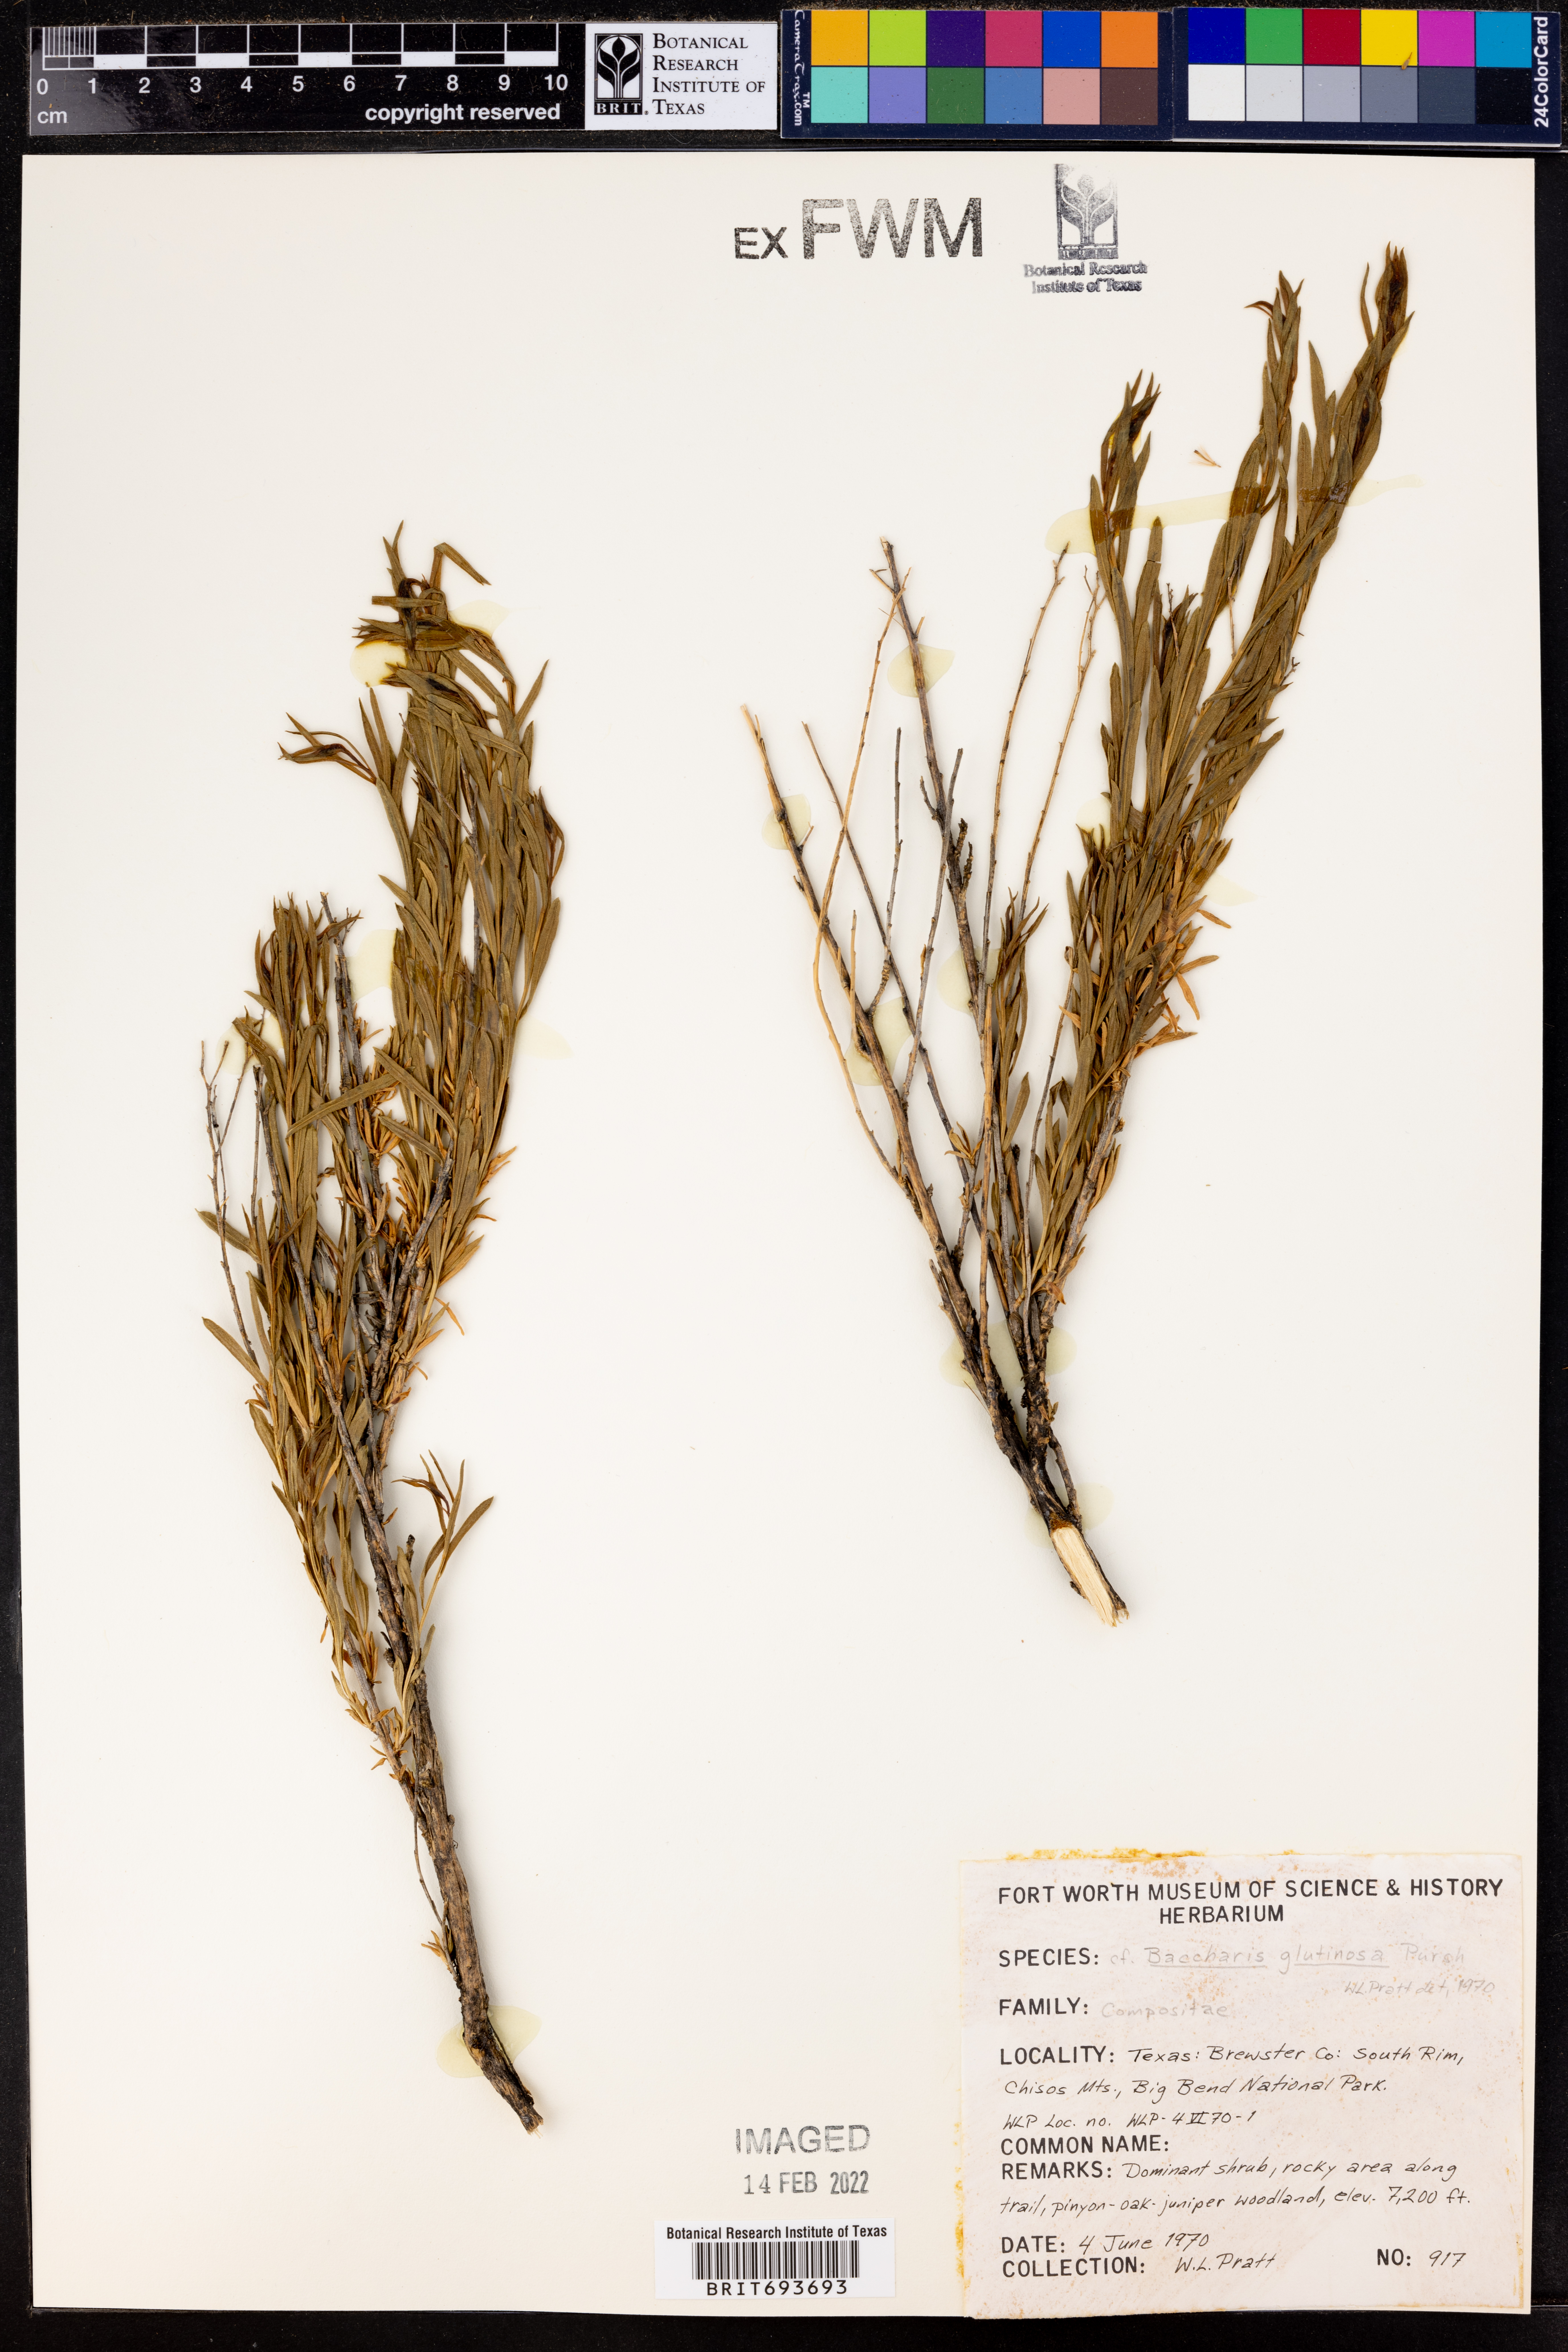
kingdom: Plantae
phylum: Tracheophyta
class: Magnoliopsida
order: Asterales
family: Asteraceae
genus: Baccharis
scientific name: Baccharis glutinosa
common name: Saltmarsh baccharis
